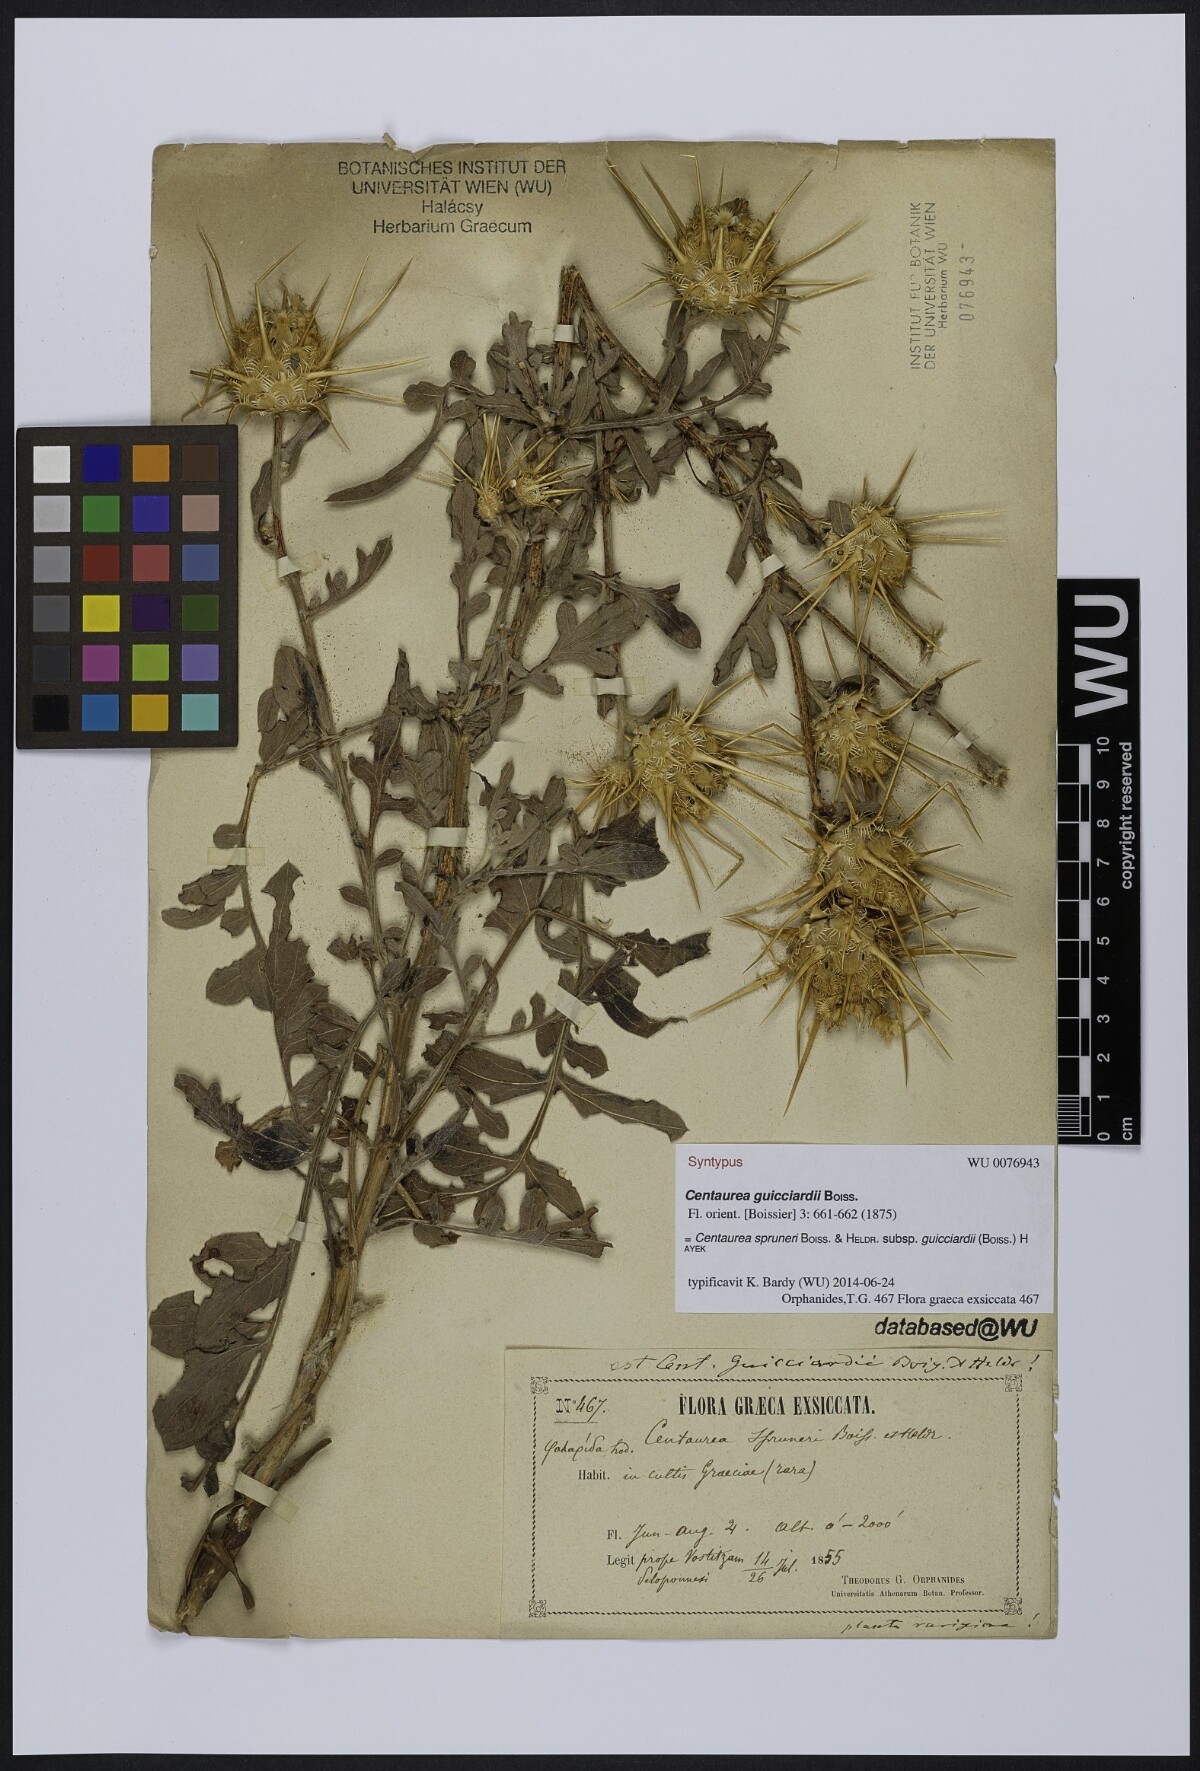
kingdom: Plantae
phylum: Tracheophyta
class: Magnoliopsida
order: Asterales
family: Asteraceae
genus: Centaurea
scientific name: Centaurea spruneri
